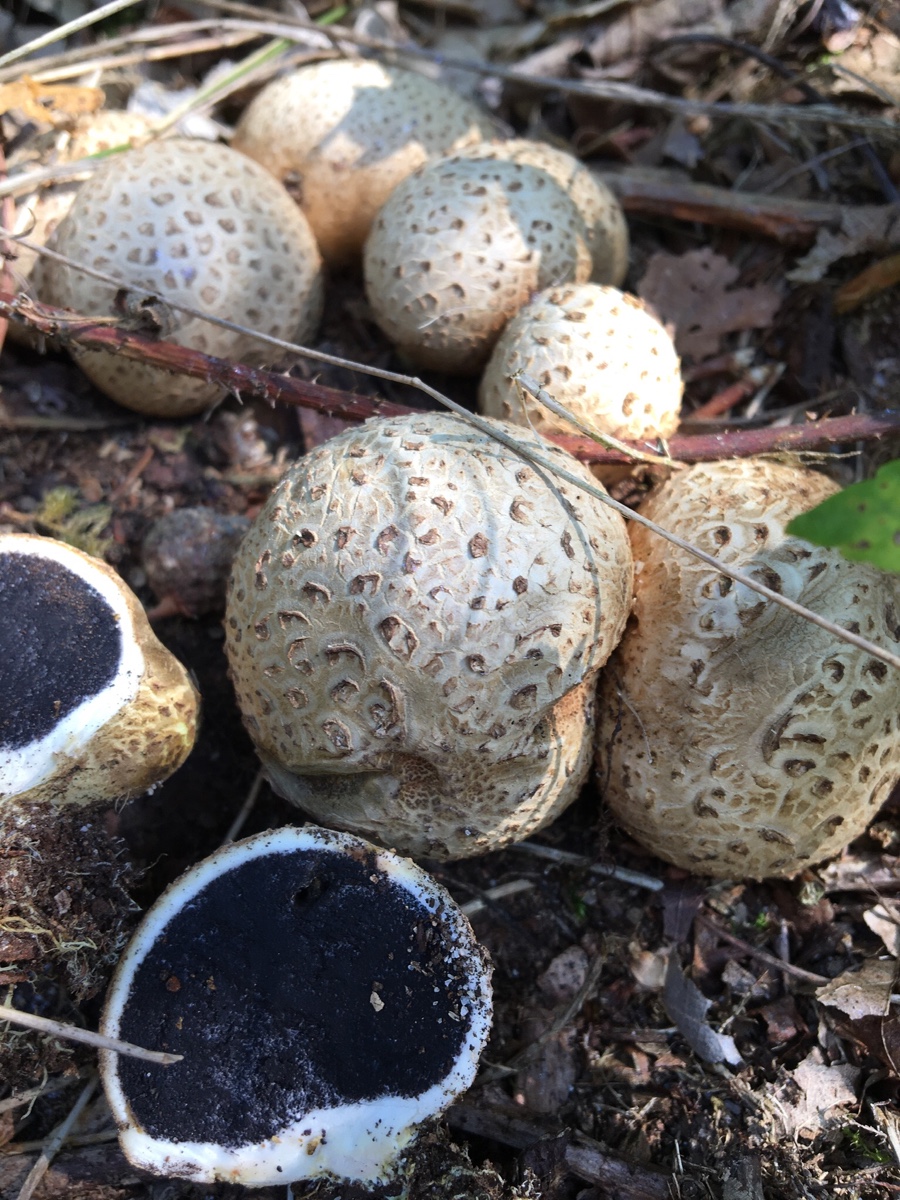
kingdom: Fungi
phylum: Basidiomycota
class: Agaricomycetes
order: Boletales
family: Sclerodermataceae
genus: Scleroderma
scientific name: Scleroderma citrinum
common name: almindelig bruskbold
